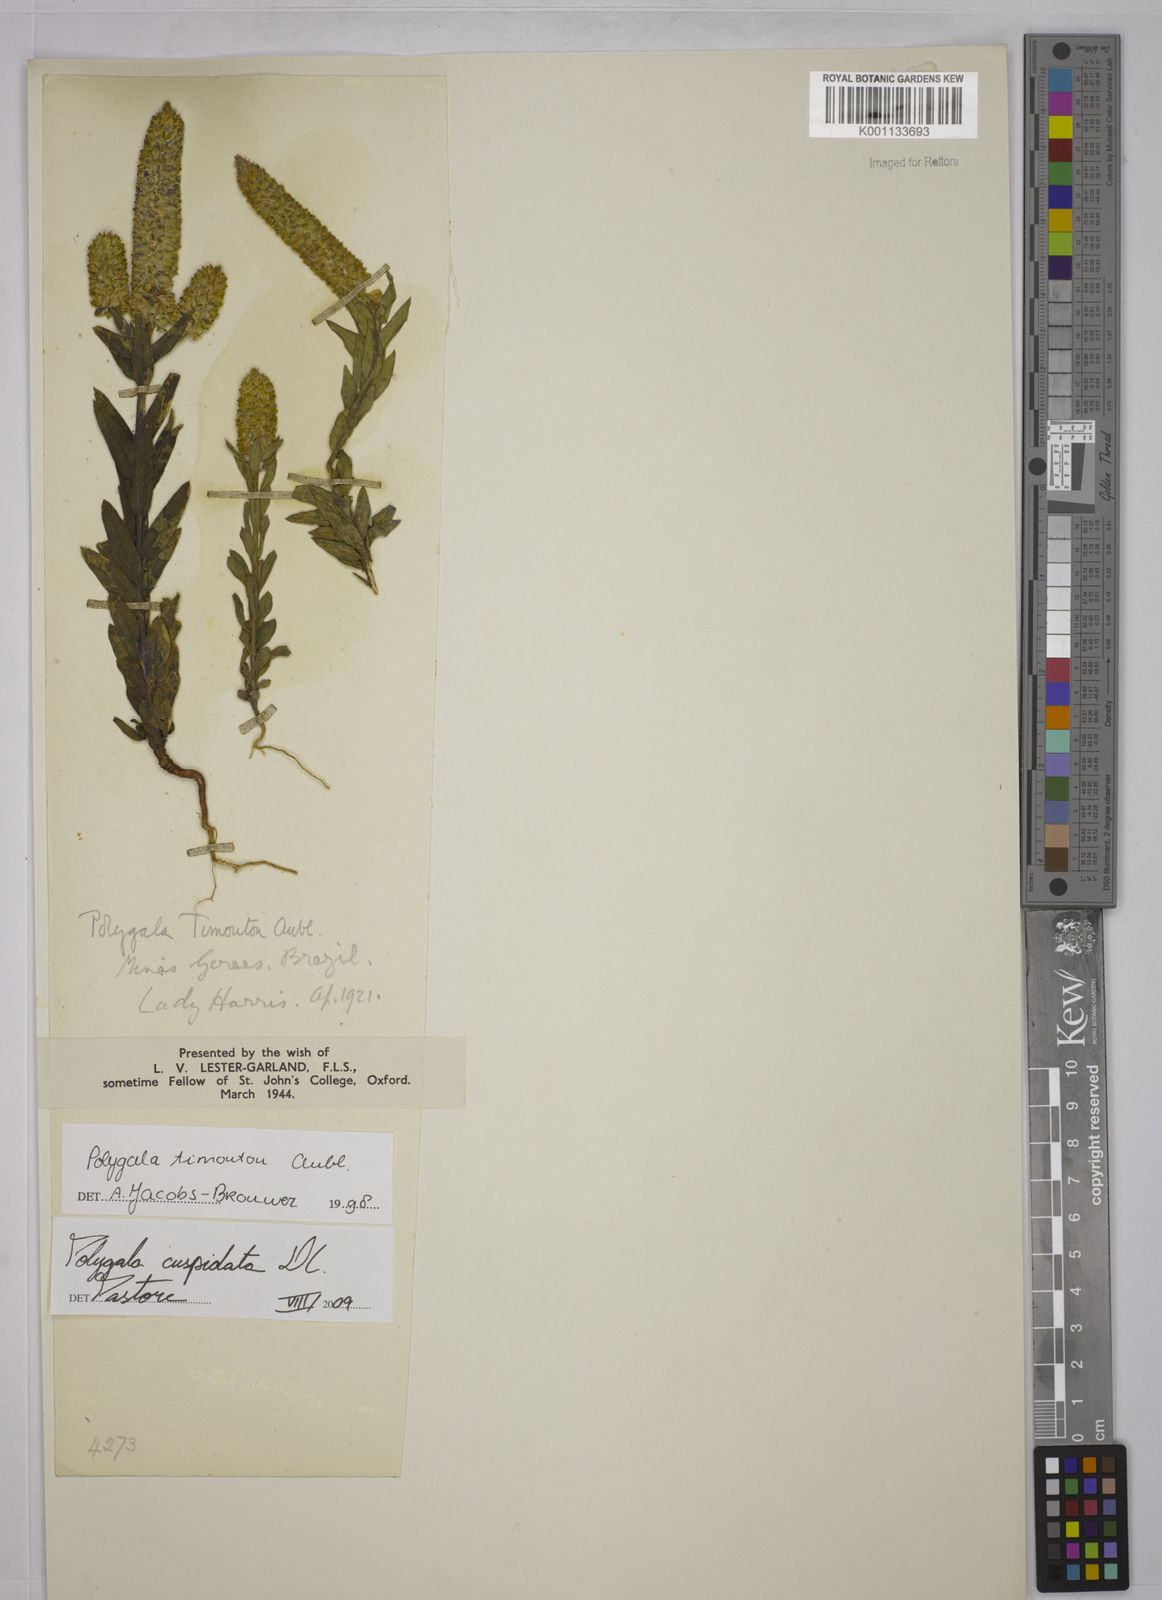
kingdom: Plantae
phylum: Tracheophyta
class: Magnoliopsida
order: Fabales
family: Polygalaceae
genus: Polygala
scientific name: Polygala cuspidata
